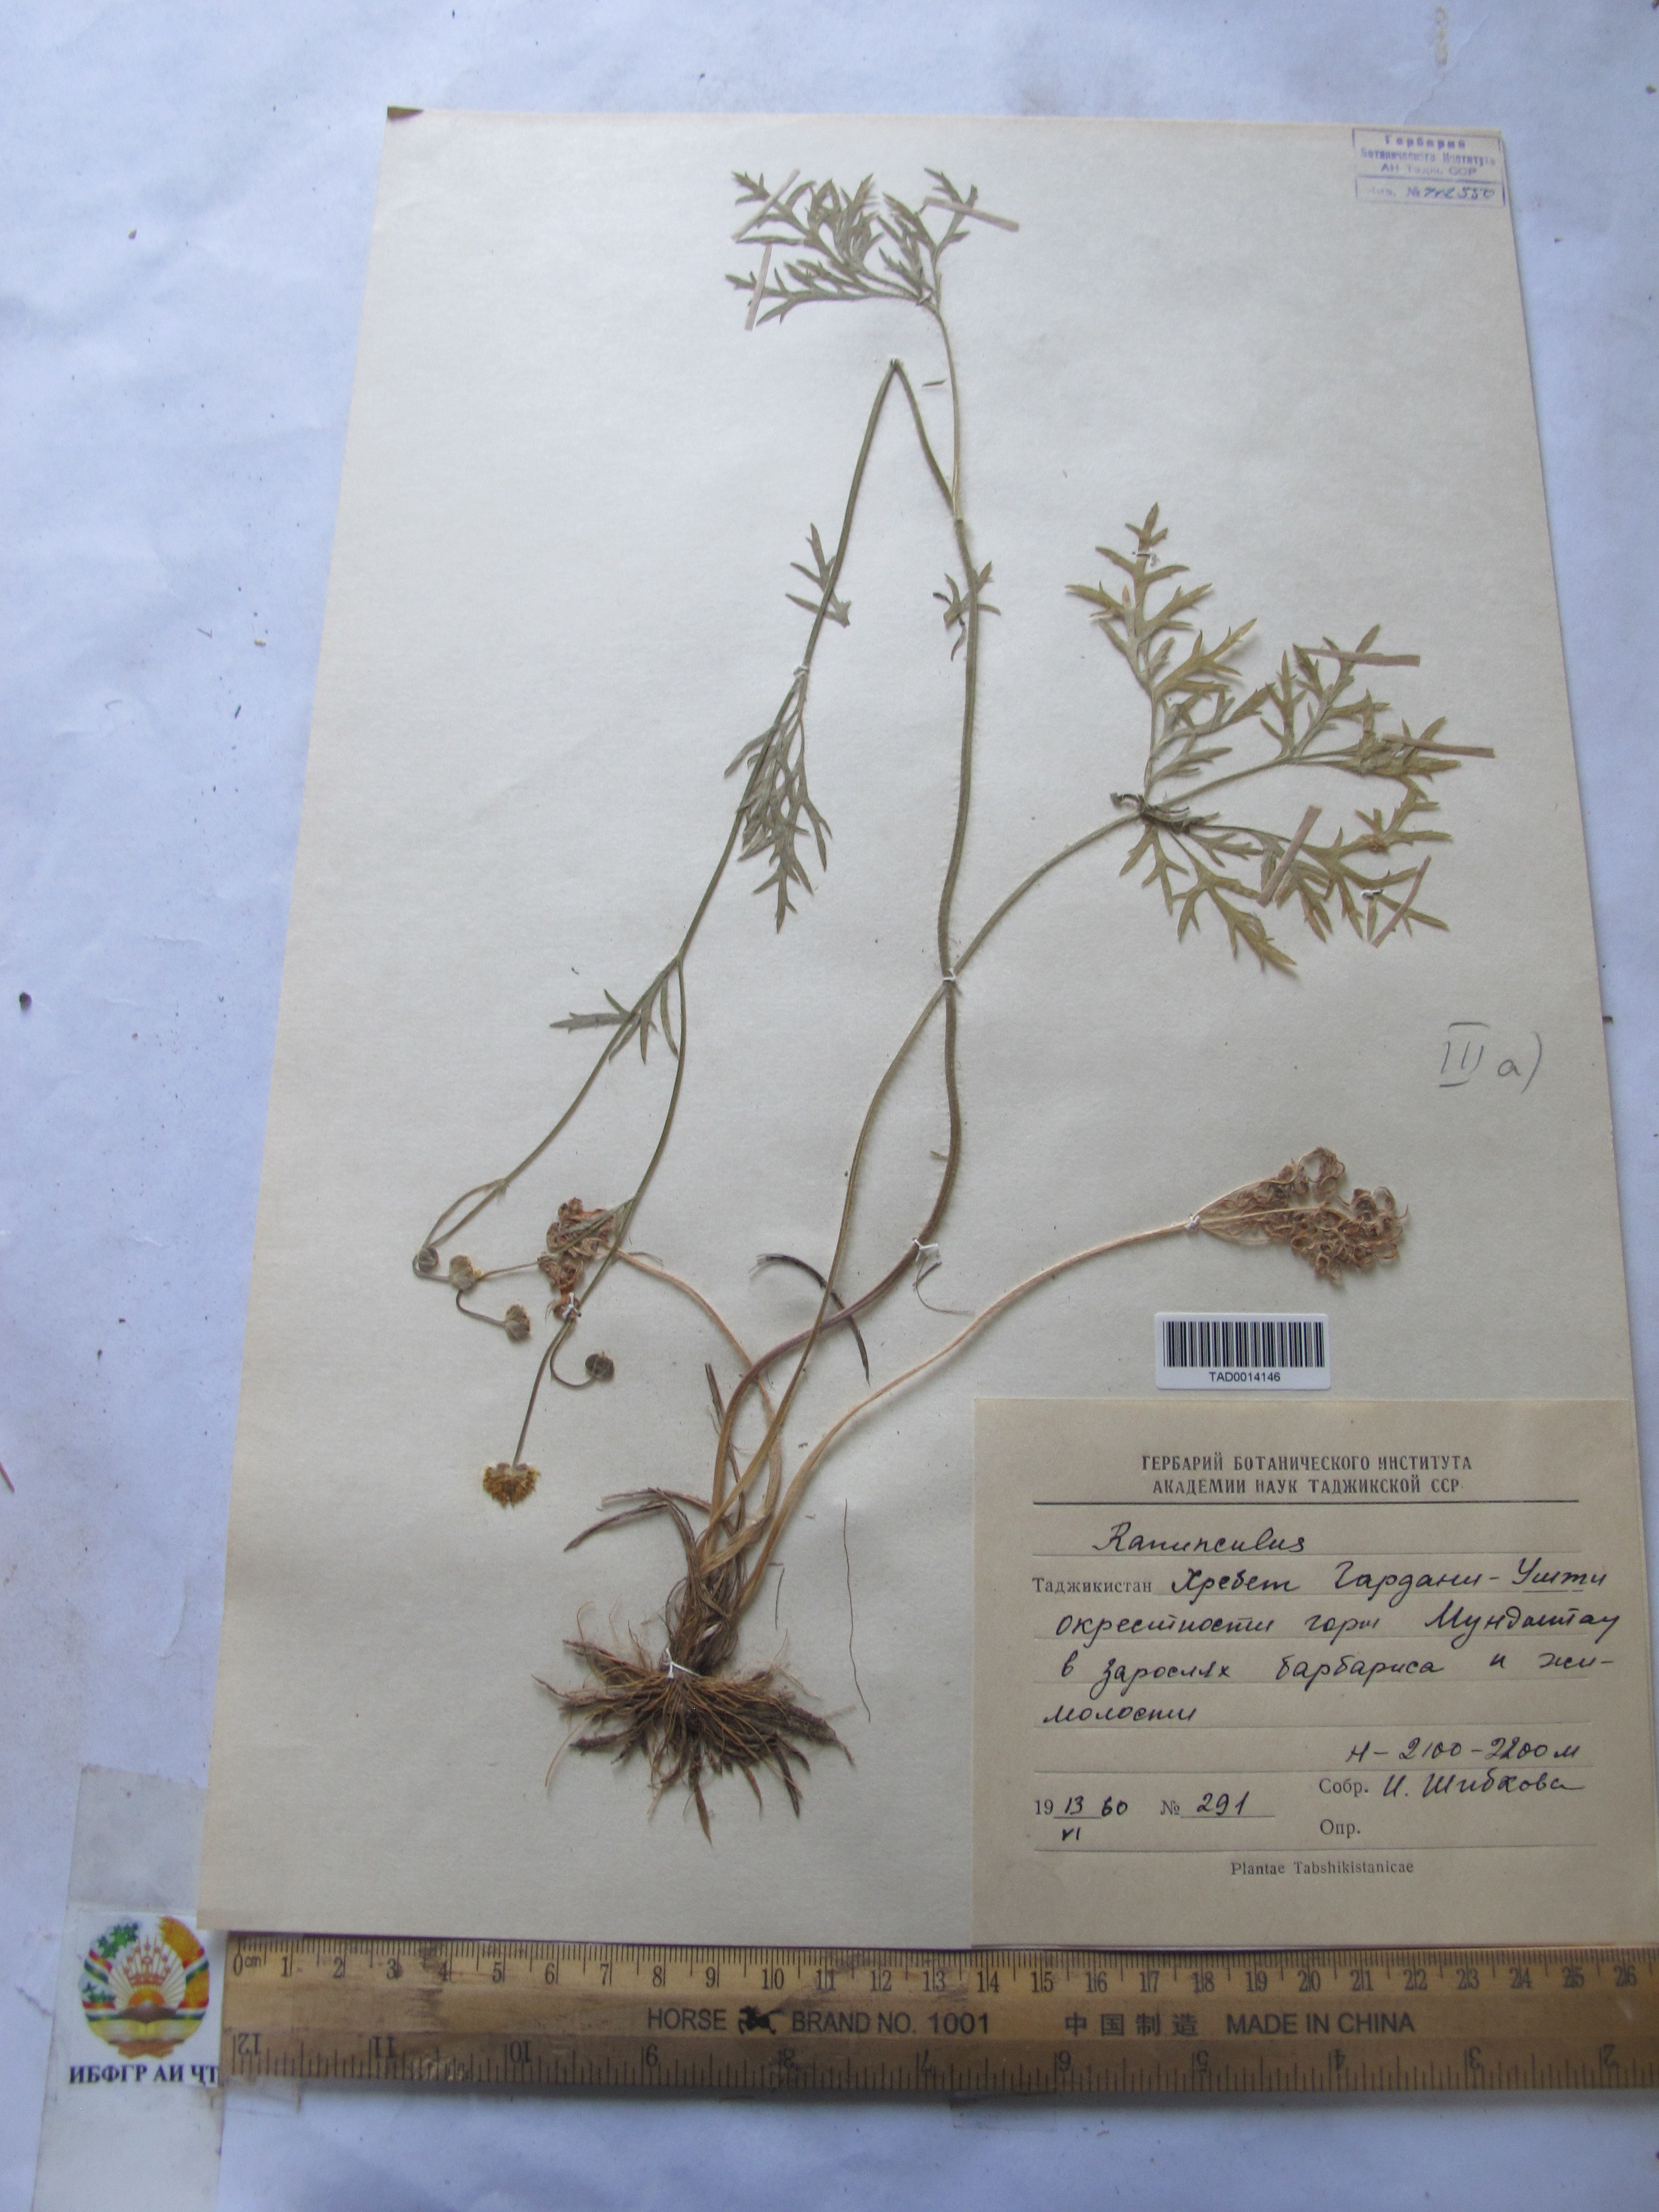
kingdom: Plantae
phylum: Tracheophyta
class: Magnoliopsida
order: Ranunculales
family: Ranunculaceae
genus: Ranunculus
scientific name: Ranunculus komarovii
